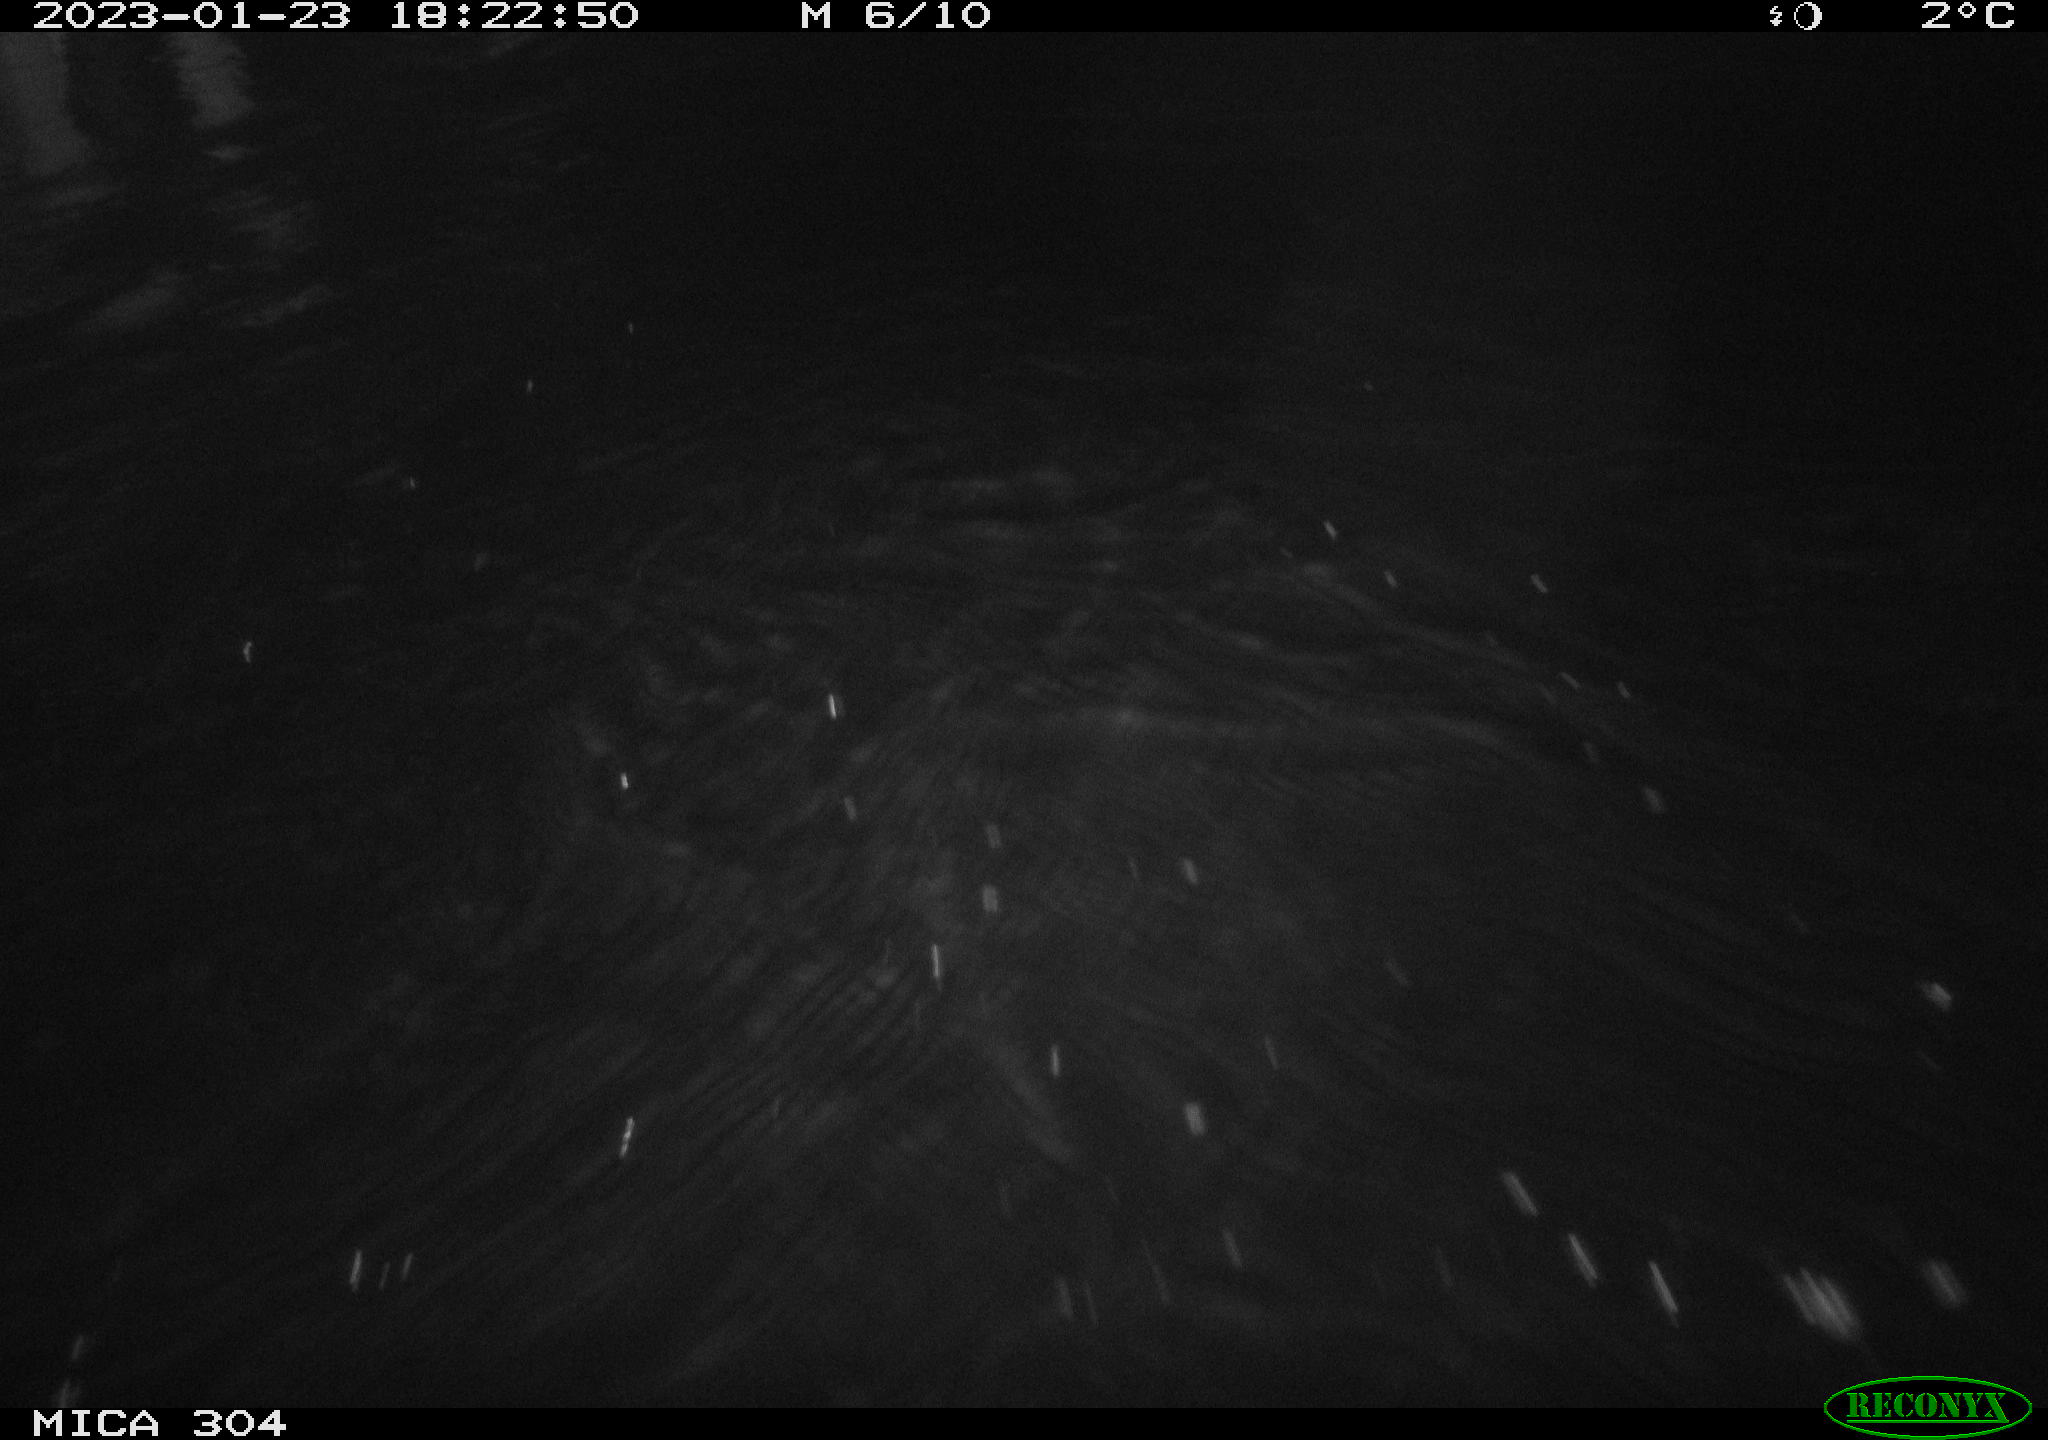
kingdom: Animalia
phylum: Chordata
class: Aves
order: Anseriformes
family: Anatidae
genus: Anas
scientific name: Anas
